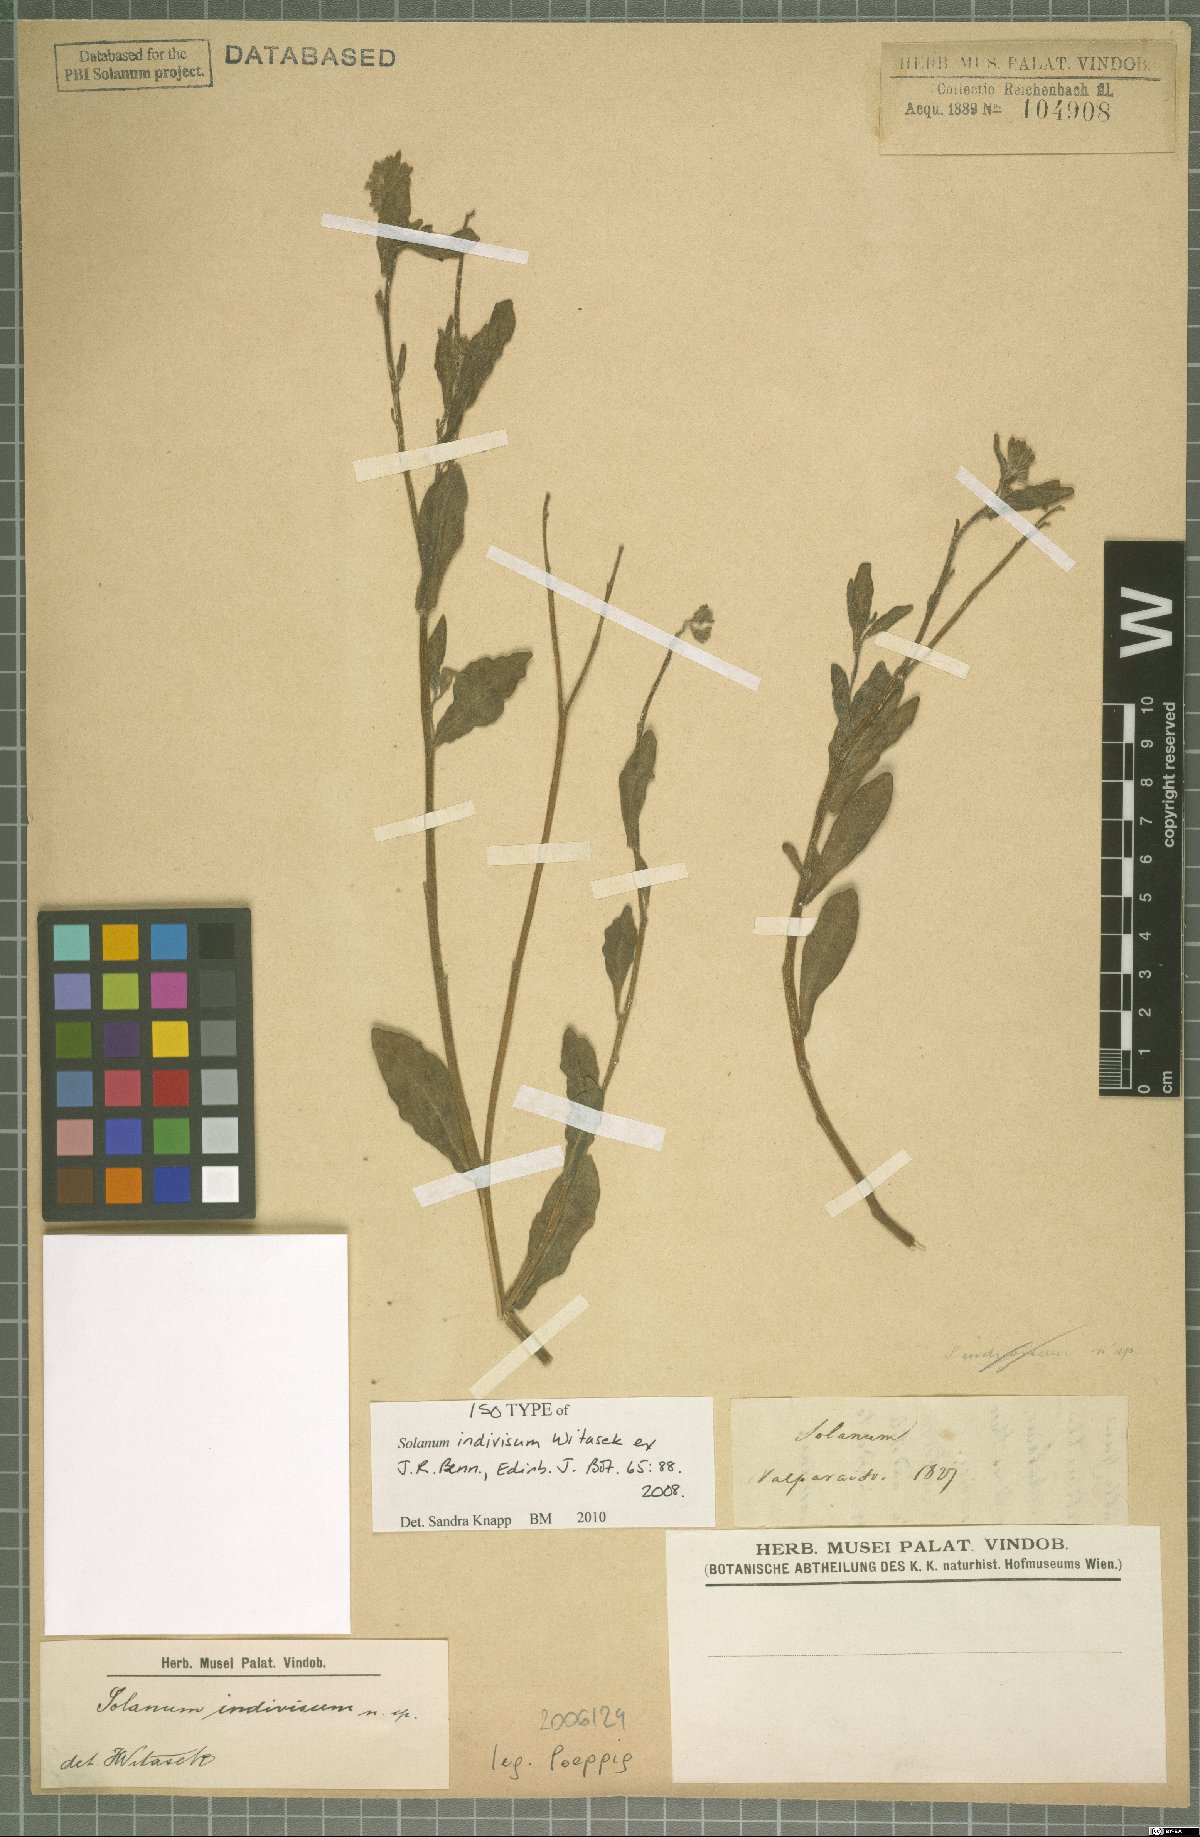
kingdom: Plantae
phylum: Tracheophyta
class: Magnoliopsida
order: Solanales
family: Solanaceae
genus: Solanum
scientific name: Solanum indivisum
